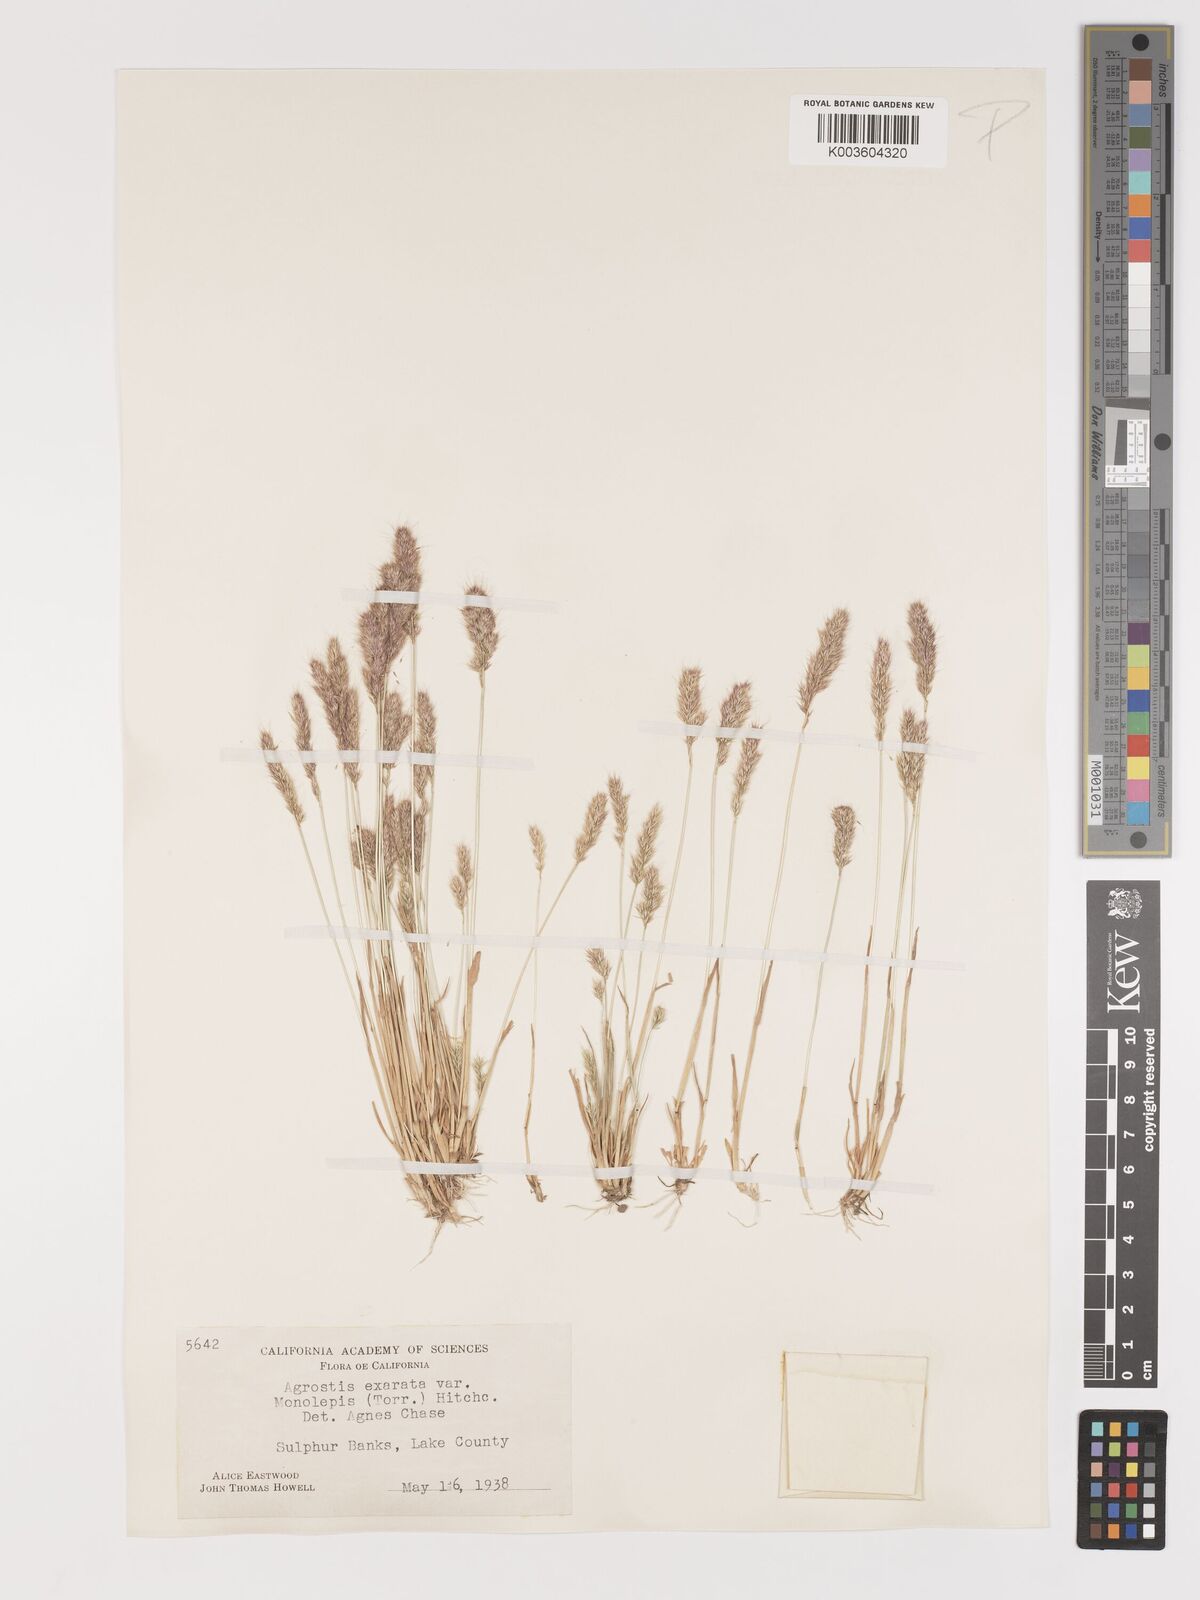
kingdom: Plantae
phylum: Tracheophyta
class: Liliopsida
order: Poales
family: Poaceae
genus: Agrostis
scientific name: Agrostis exarata
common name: Spike bent
